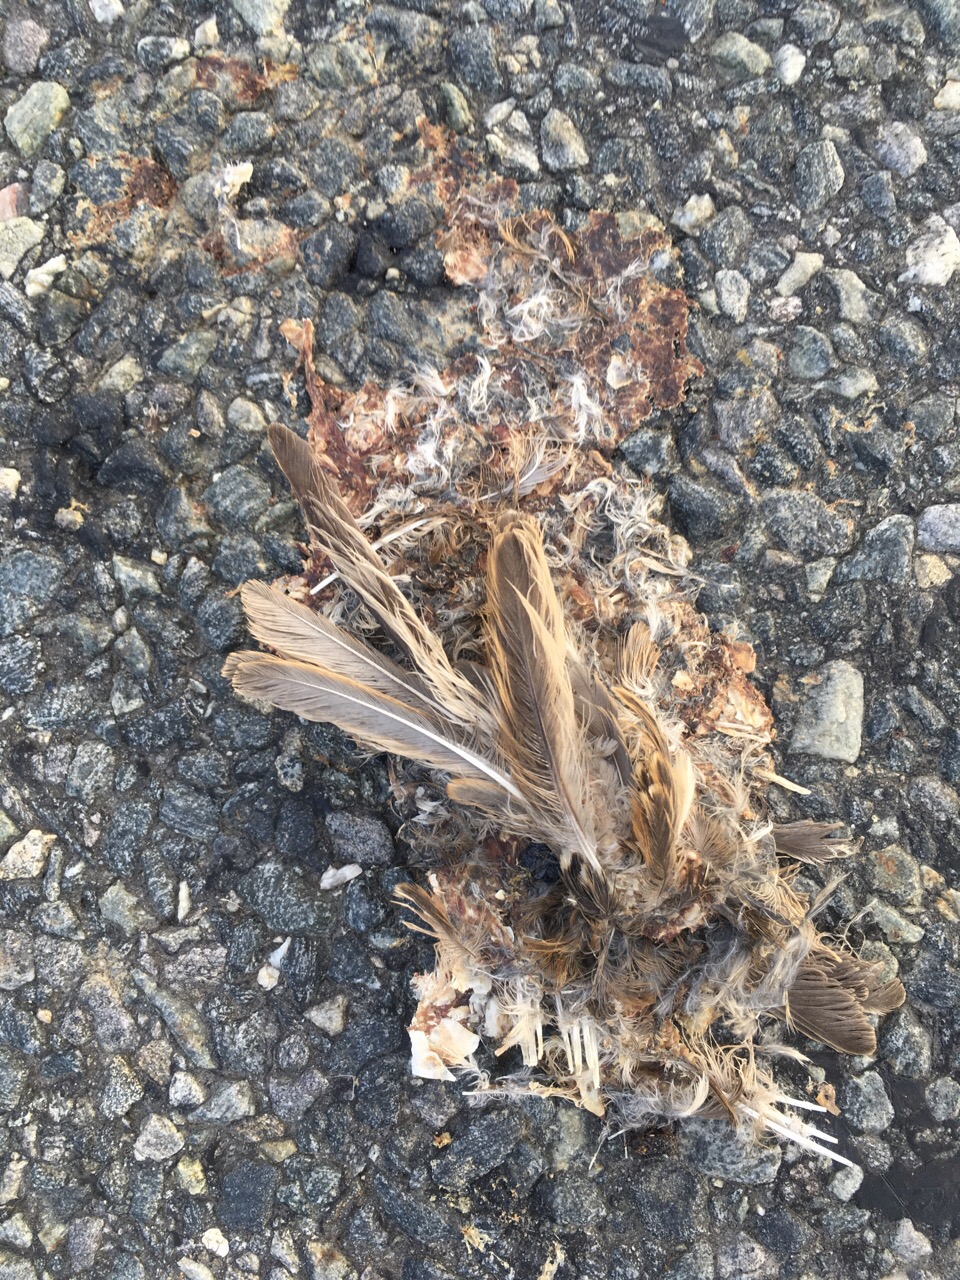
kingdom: Animalia
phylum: Chordata
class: Aves
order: Passeriformes
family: Passeridae
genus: Passer
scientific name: Passer montanus
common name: Eurasian tree sparrow
